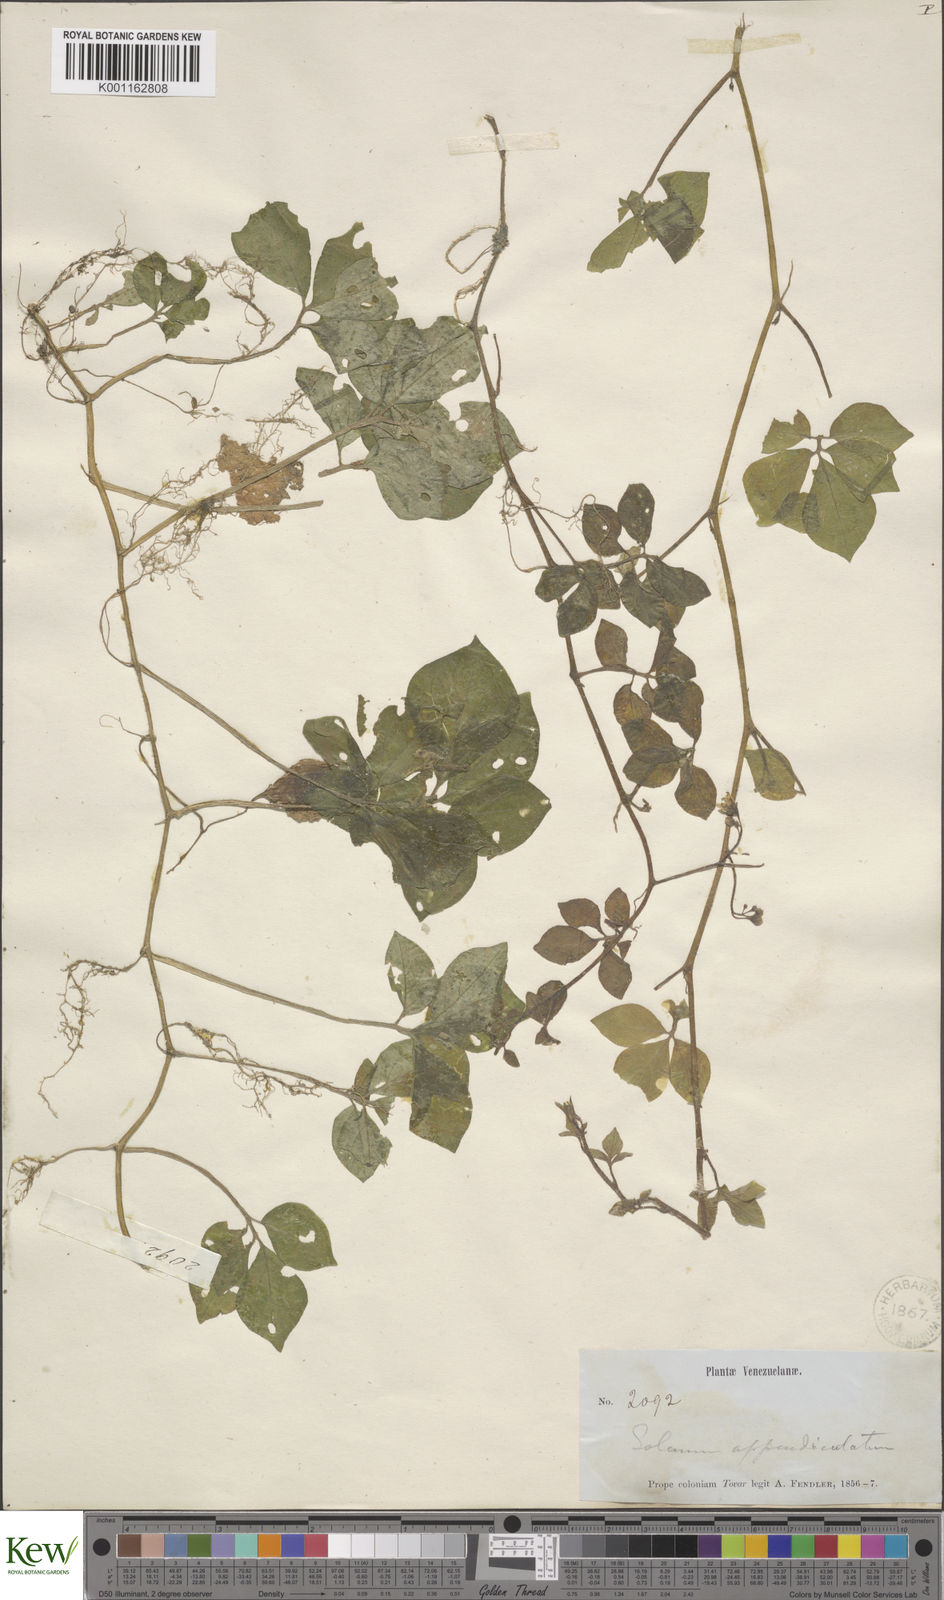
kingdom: Plantae
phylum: Tracheophyta
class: Magnoliopsida
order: Solanales
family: Solanaceae
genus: Solanum
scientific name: Solanum appendiculatum
